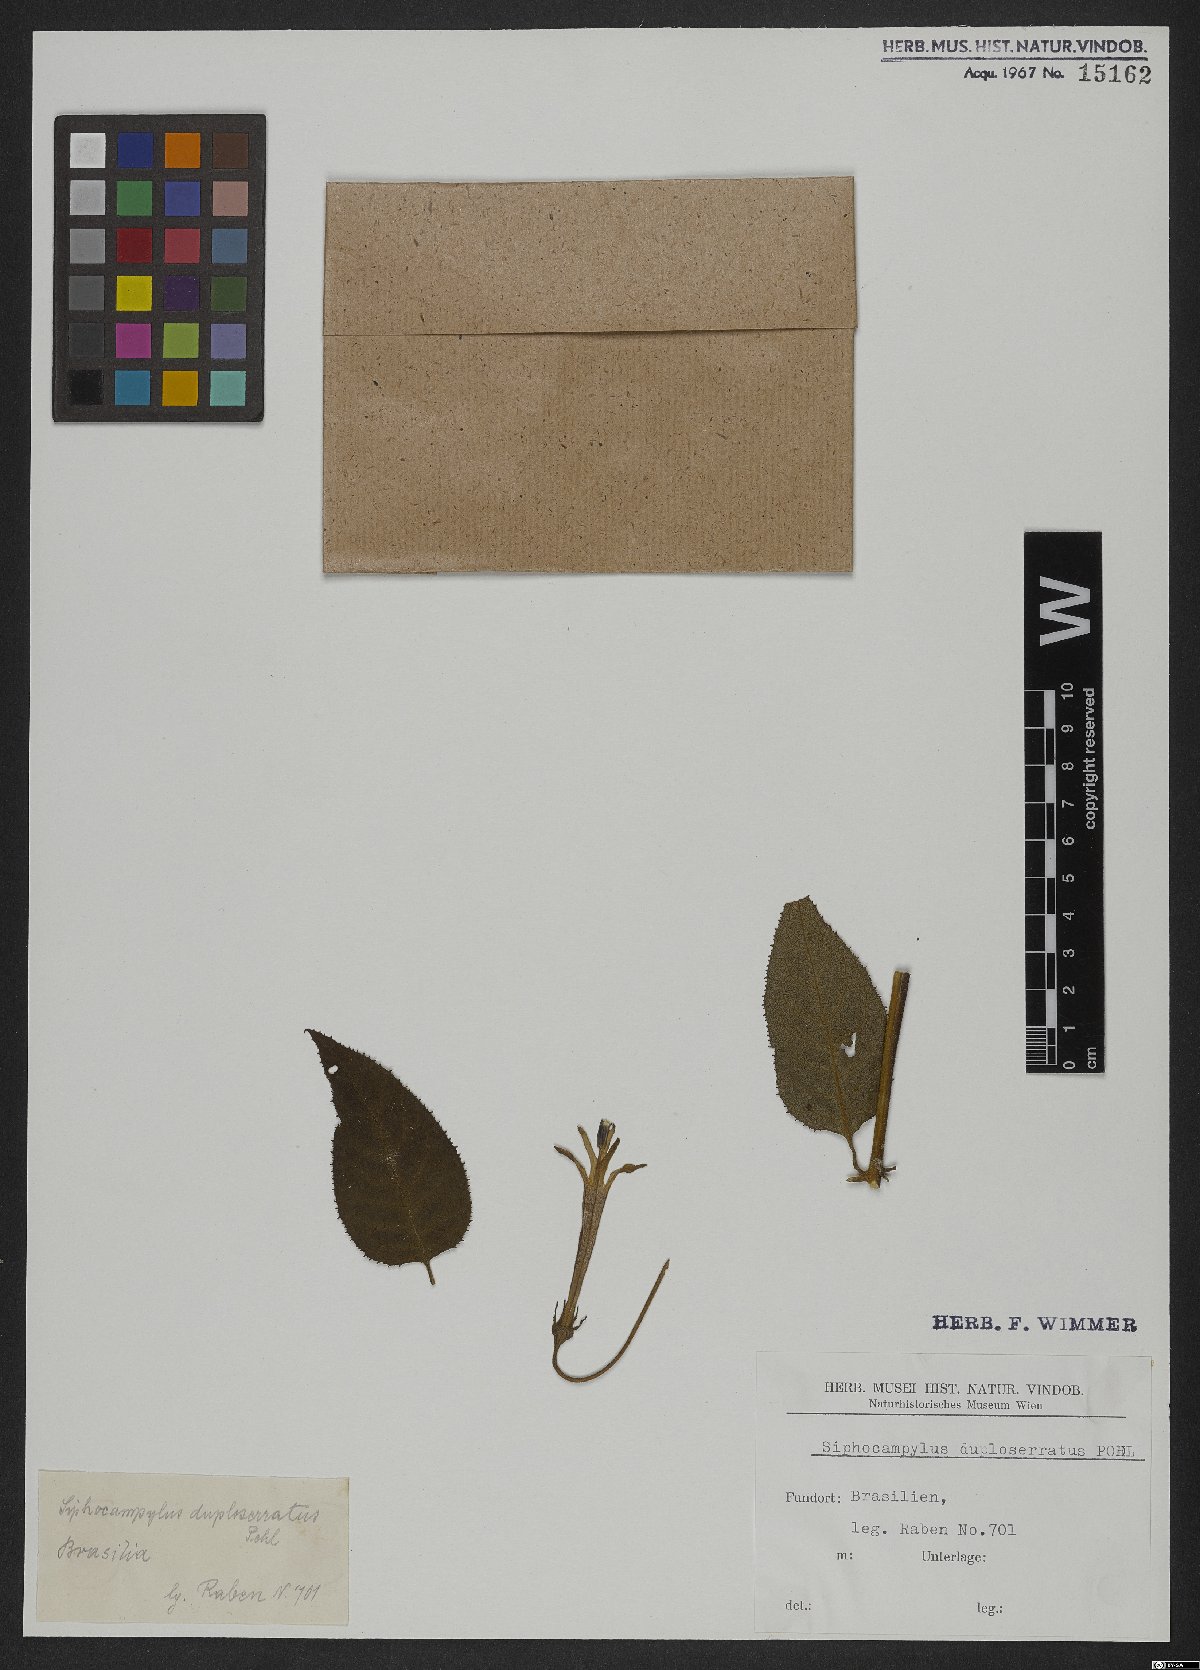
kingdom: Plantae
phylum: Tracheophyta
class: Magnoliopsida
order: Asterales
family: Campanulaceae
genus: Siphocampylus
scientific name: Siphocampylus duploserratus
